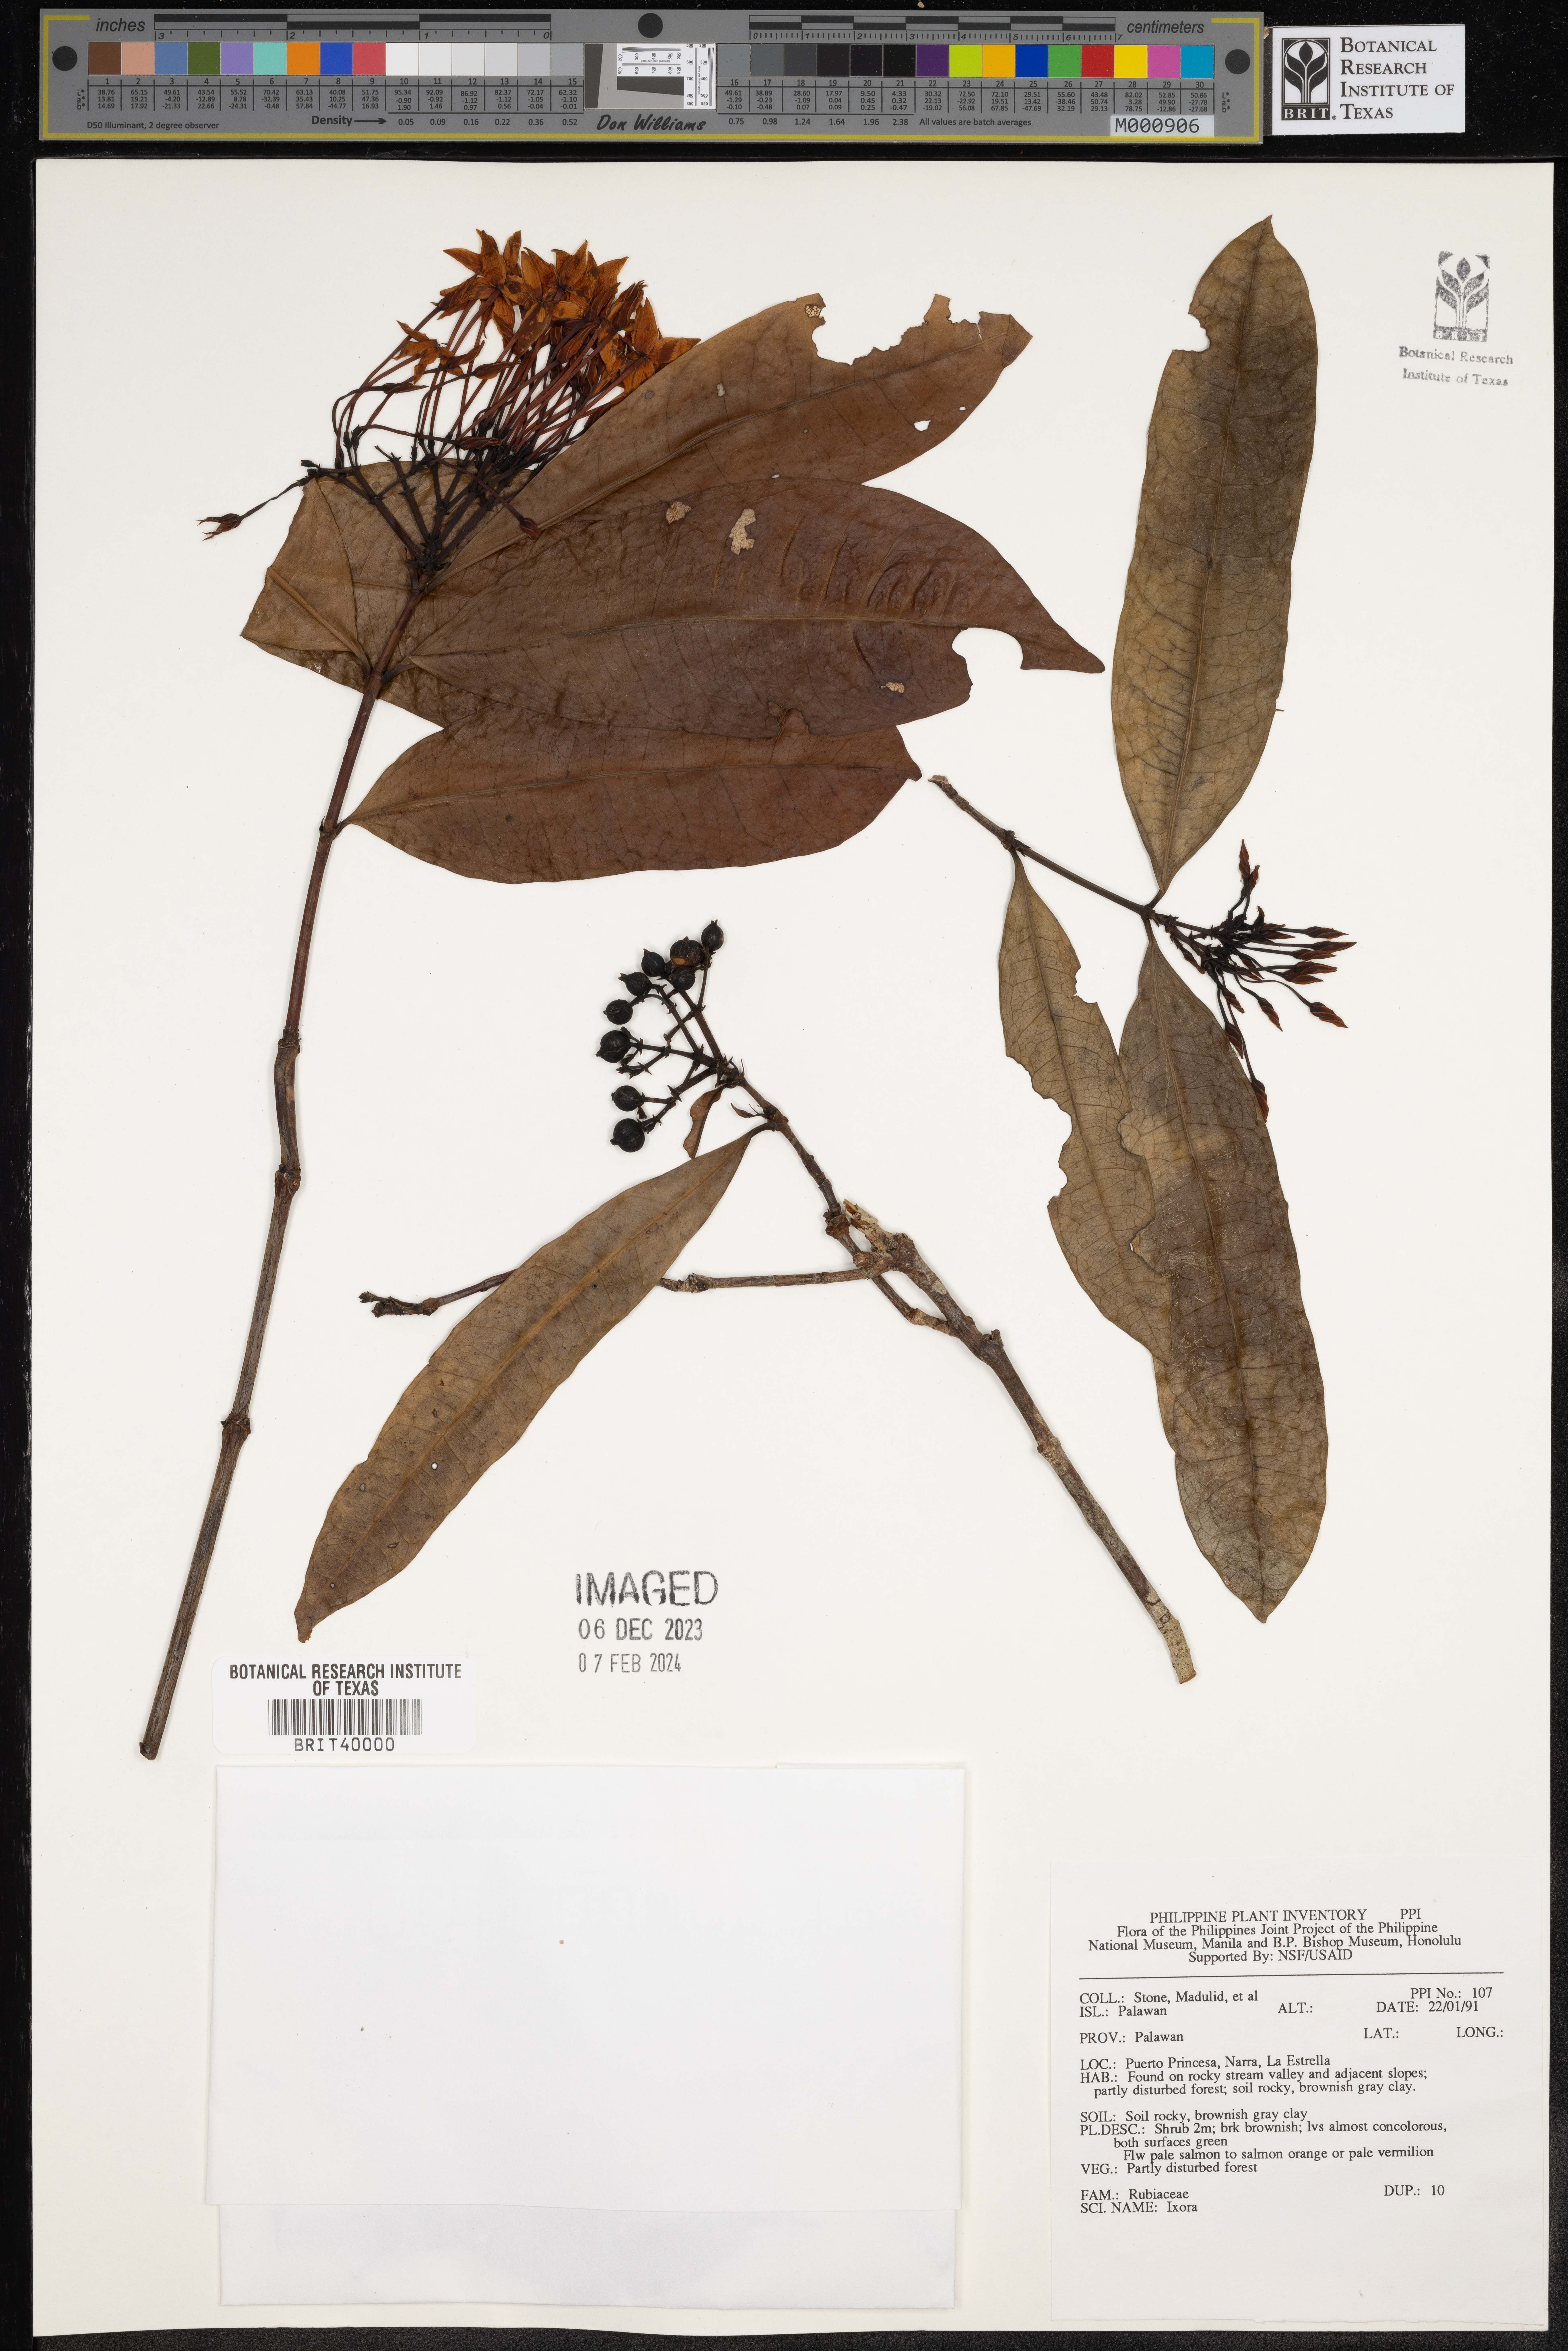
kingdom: Plantae
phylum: Tracheophyta
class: Magnoliopsida
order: Gentianales
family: Rubiaceae
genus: Ixora
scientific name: Ixora
